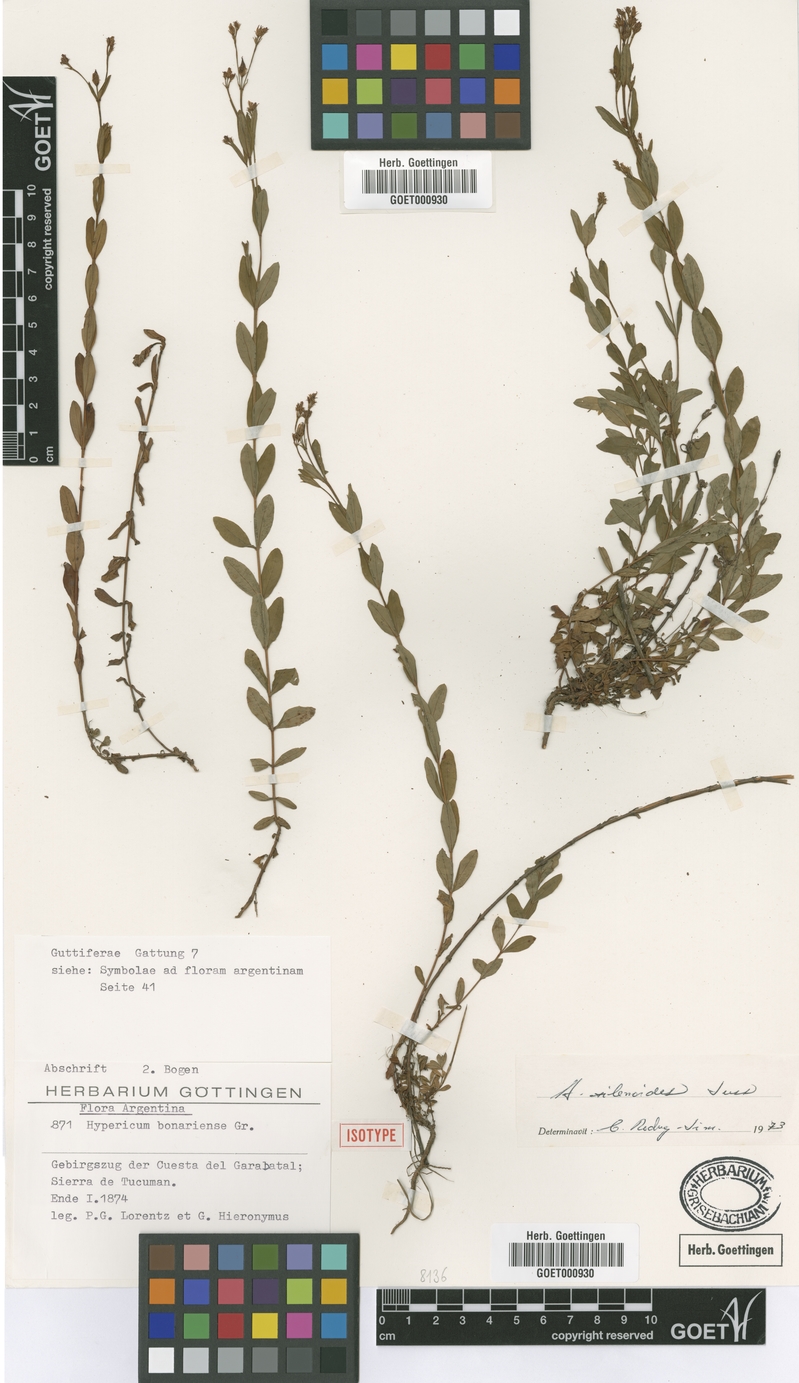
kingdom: Plantae
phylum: Tracheophyta
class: Magnoliopsida
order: Malpighiales
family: Hypericaceae
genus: Hypericum
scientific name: Hypericum silenoides
